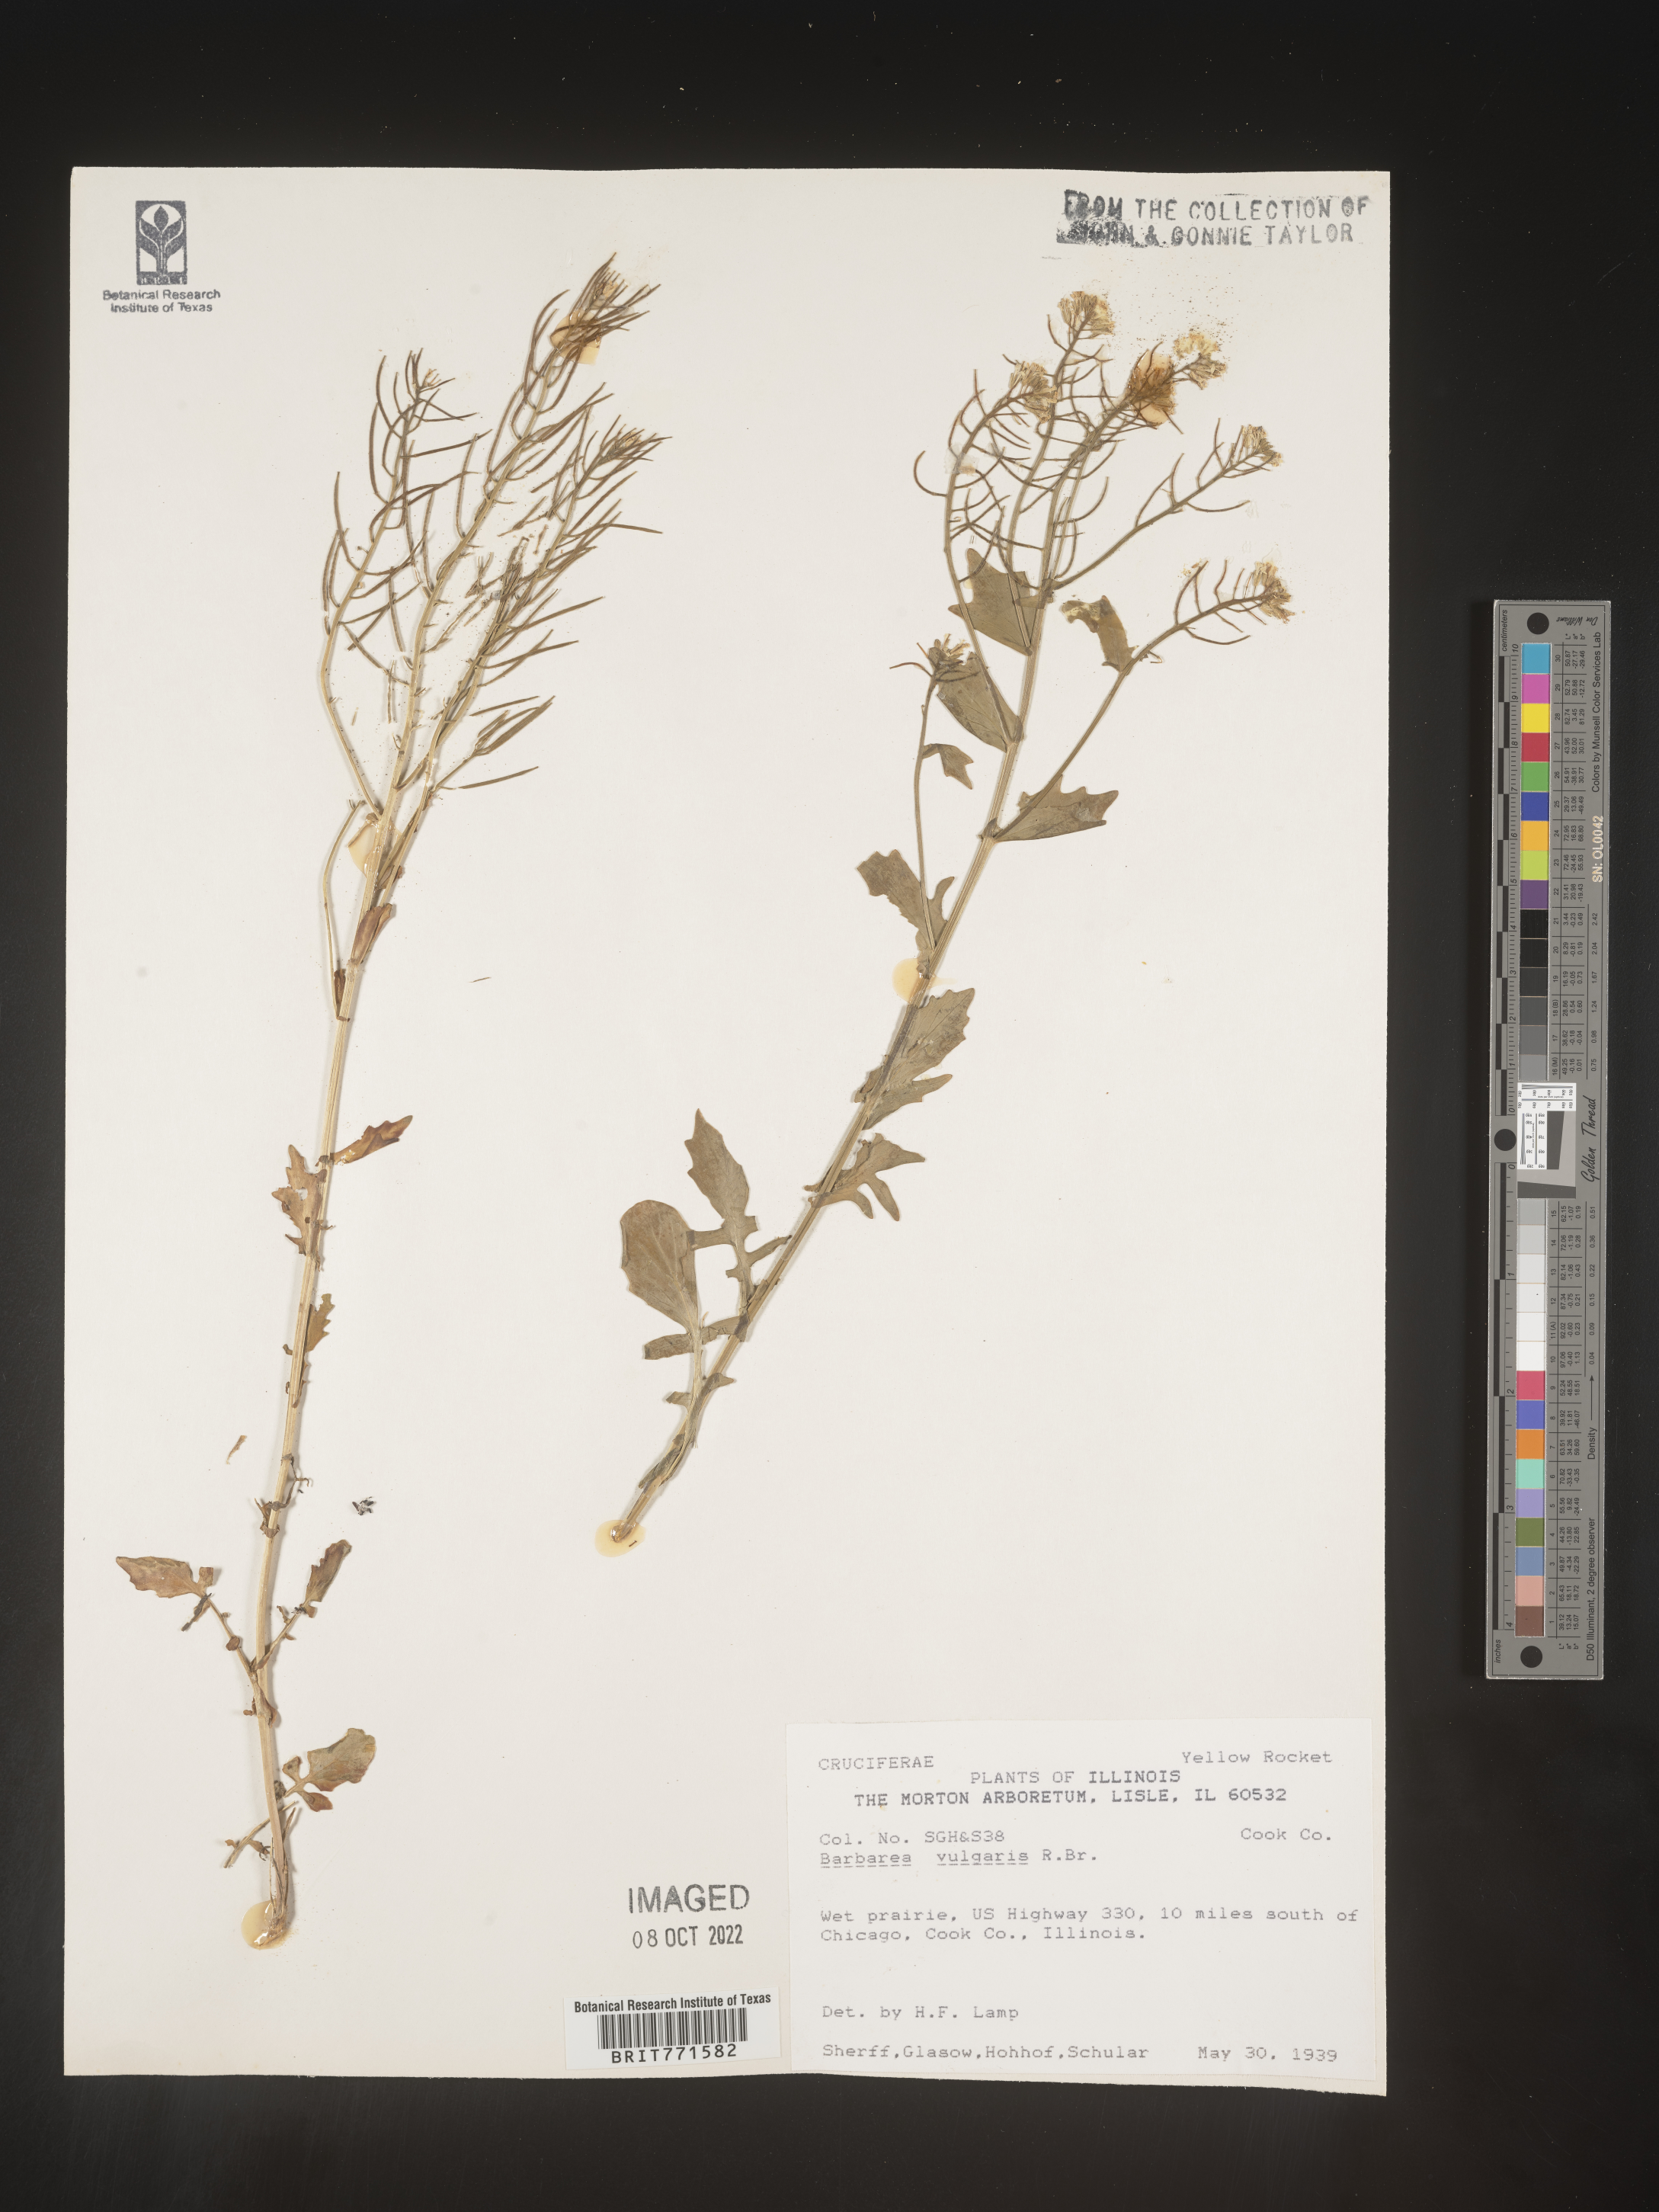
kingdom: Plantae
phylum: Tracheophyta
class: Magnoliopsida
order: Brassicales
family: Brassicaceae
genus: Barbarea
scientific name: Barbarea vulgaris
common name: Cressy-greens
